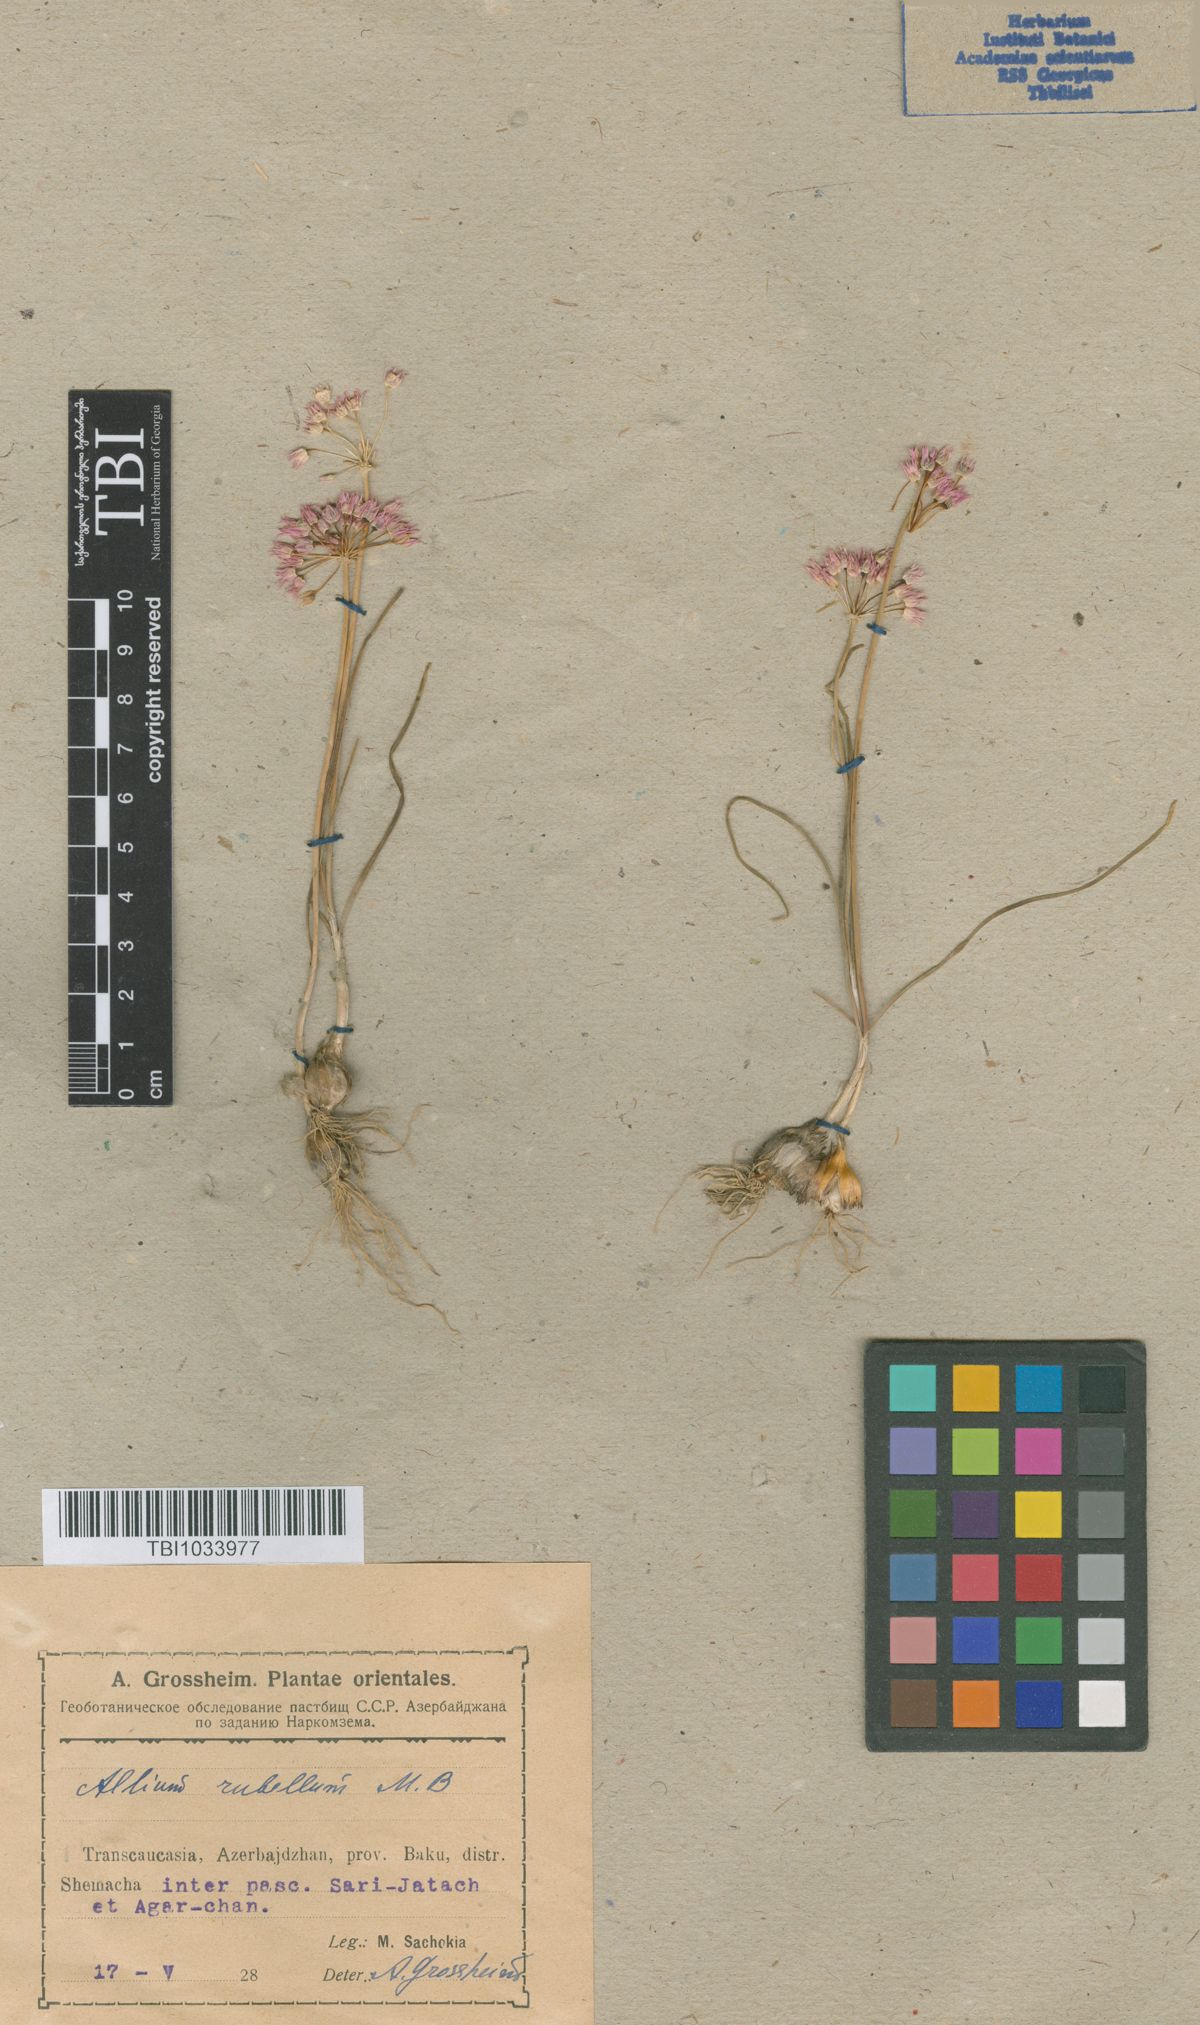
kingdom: Plantae
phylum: Tracheophyta
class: Liliopsida
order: Asparagales
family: Amaryllidaceae
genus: Allium
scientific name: Allium rubellum
